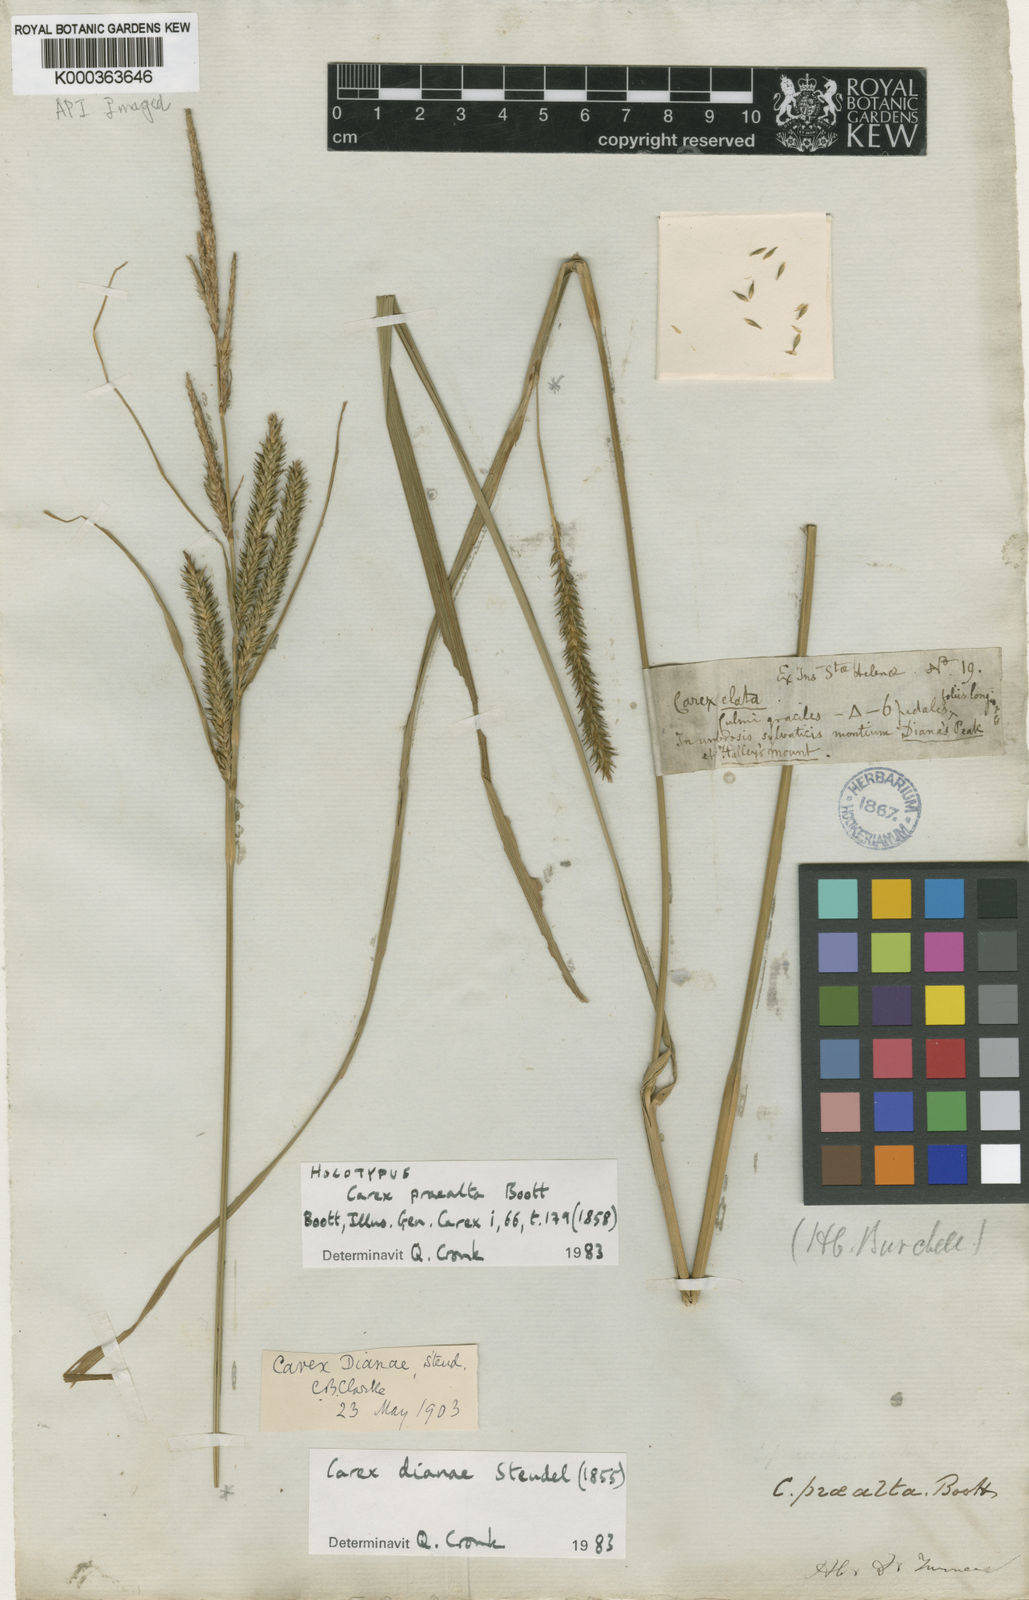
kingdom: Plantae
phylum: Tracheophyta
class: Liliopsida
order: Poales
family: Cyperaceae
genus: Carex
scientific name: Carex dianae
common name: Diana's peak grass
